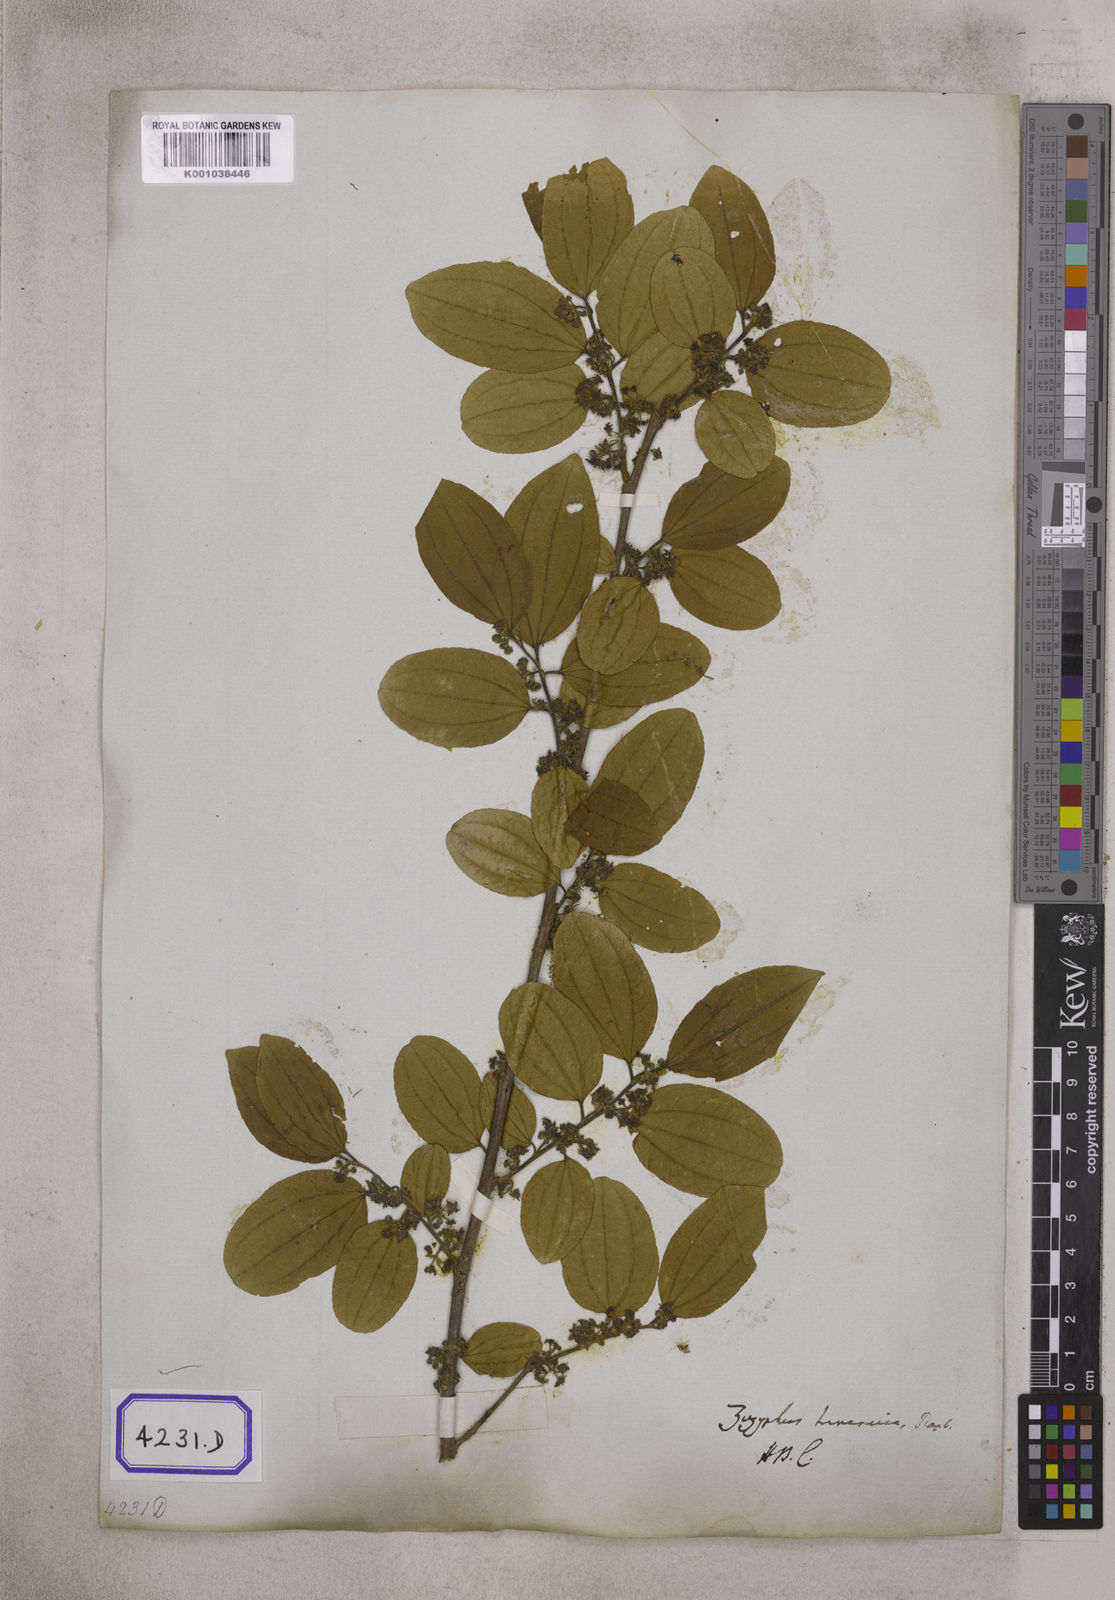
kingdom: Plantae
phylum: Tracheophyta
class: Magnoliopsida
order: Rosales
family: Rhamnaceae
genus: Ziziphus
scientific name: Ziziphus glabrata
